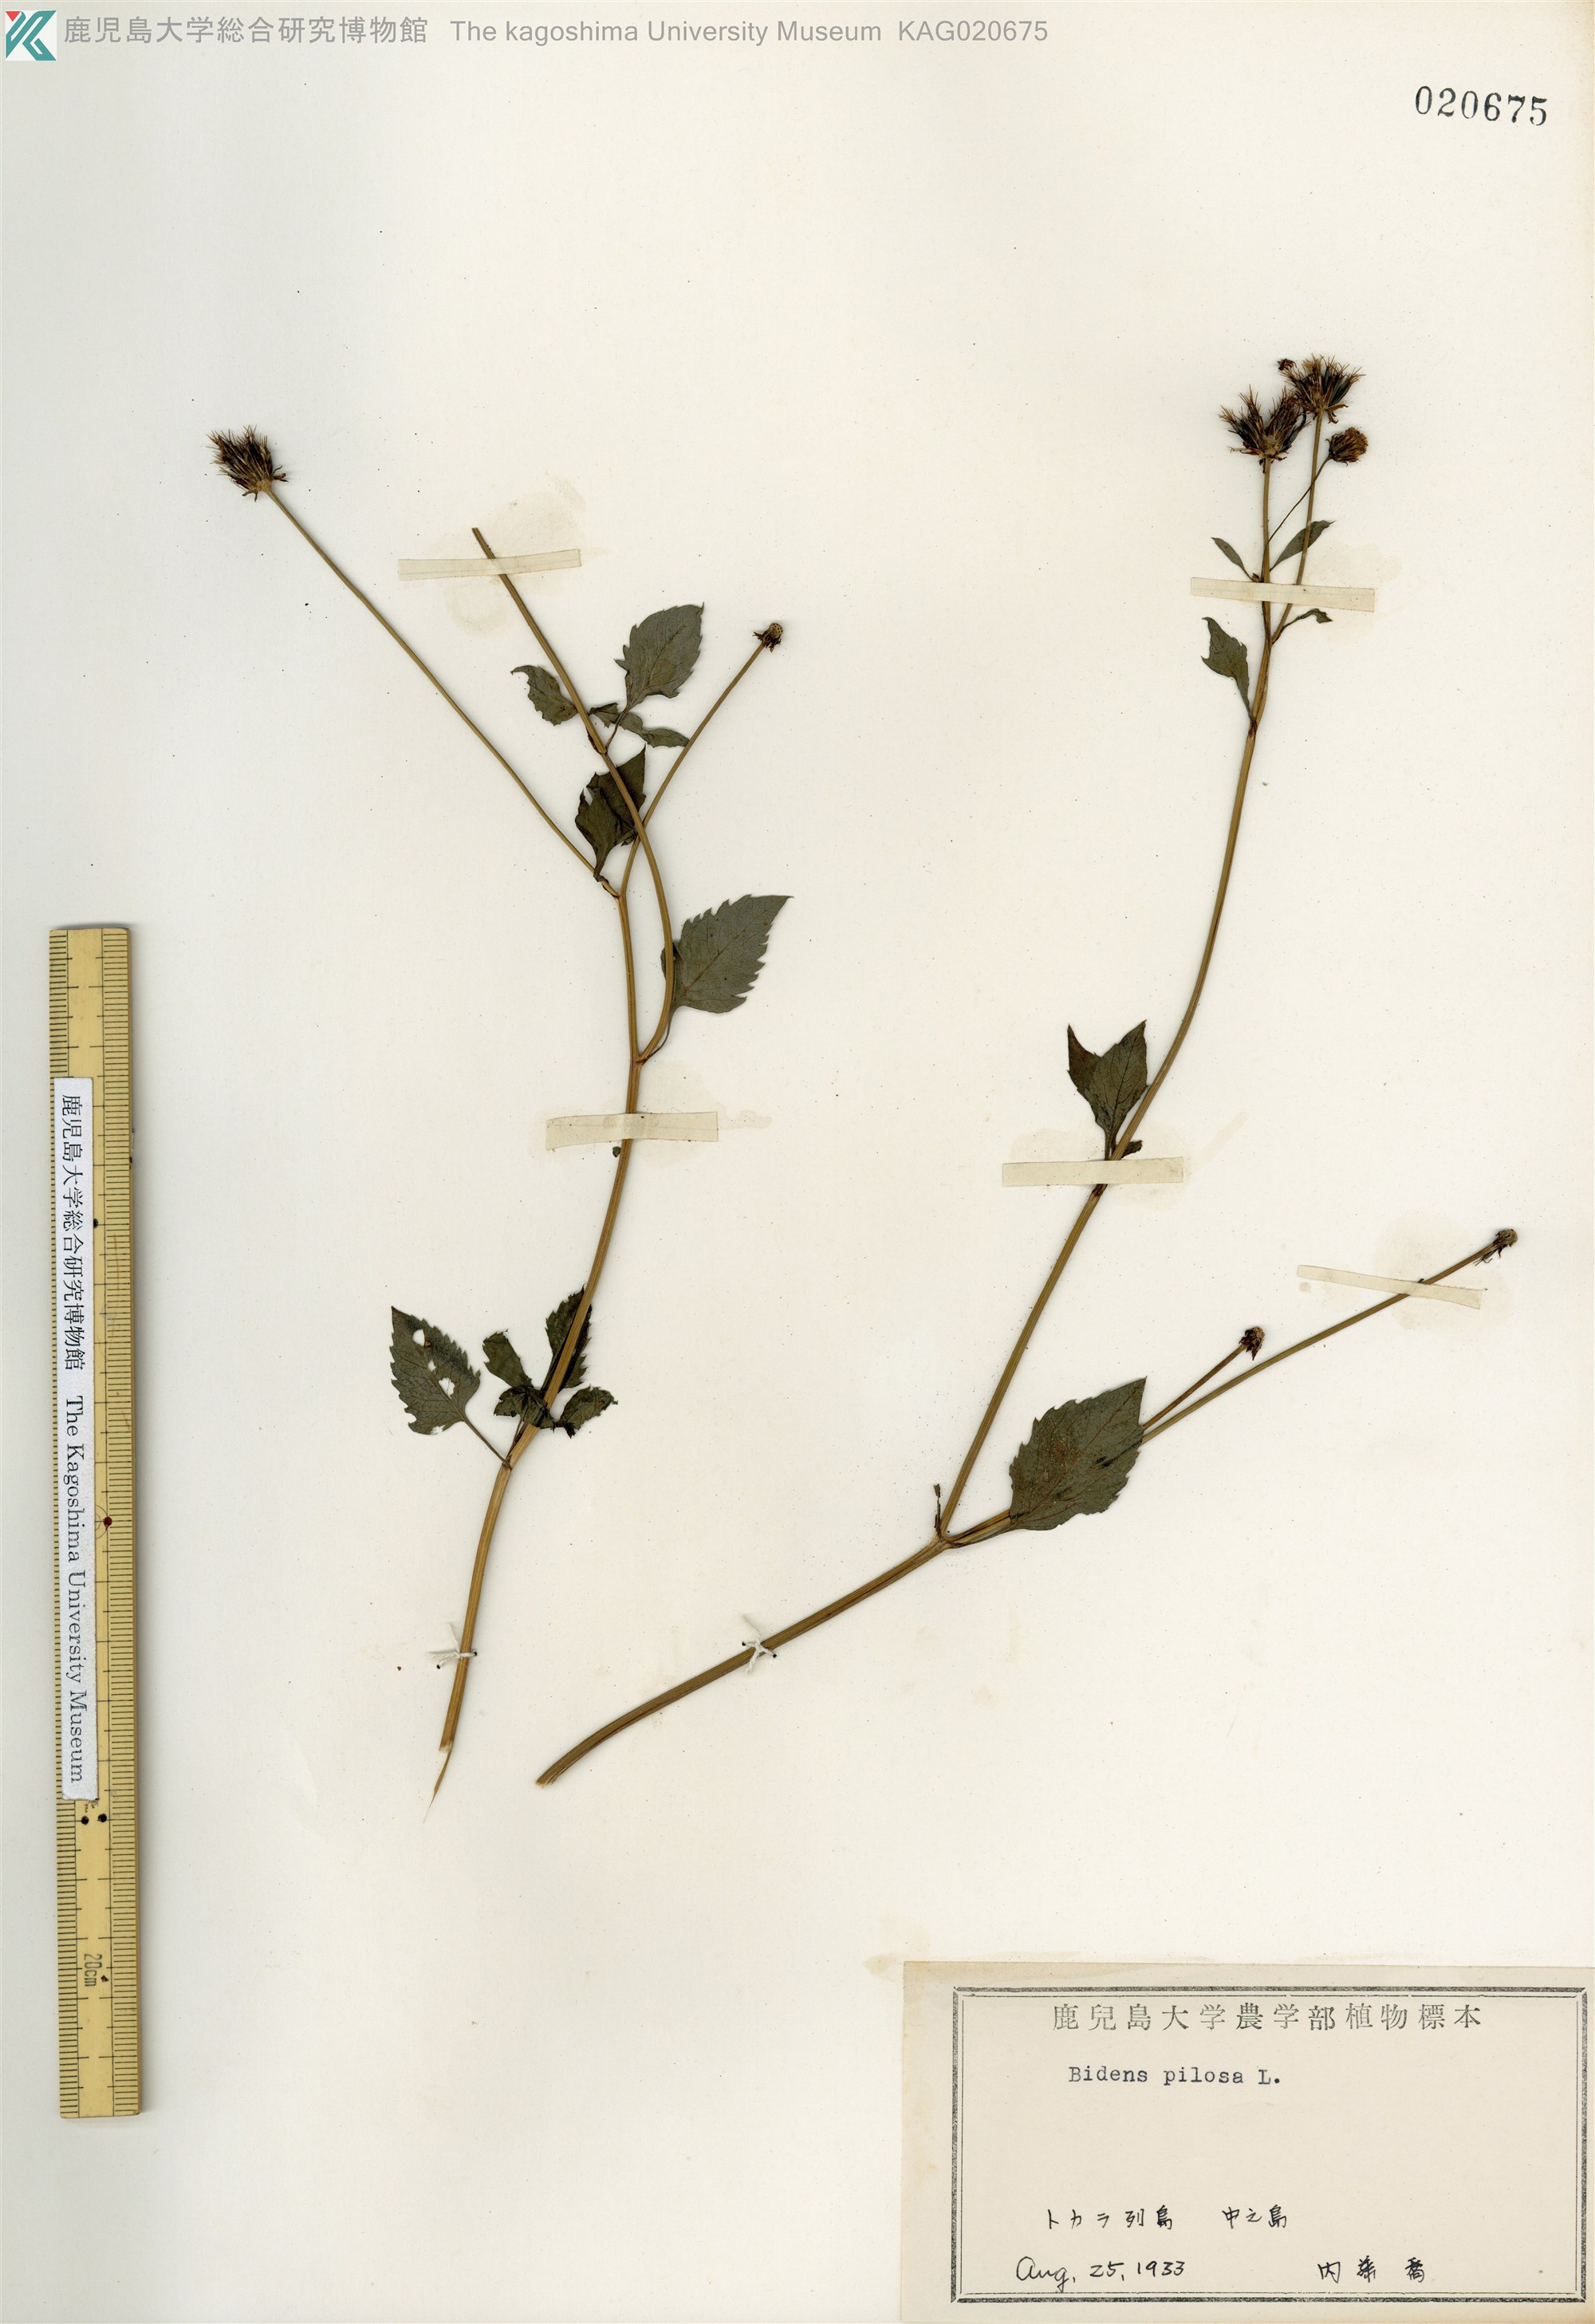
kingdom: Plantae
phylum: Tracheophyta
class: Magnoliopsida
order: Asterales
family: Asteraceae
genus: Bidens
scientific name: Bidens pilosa
